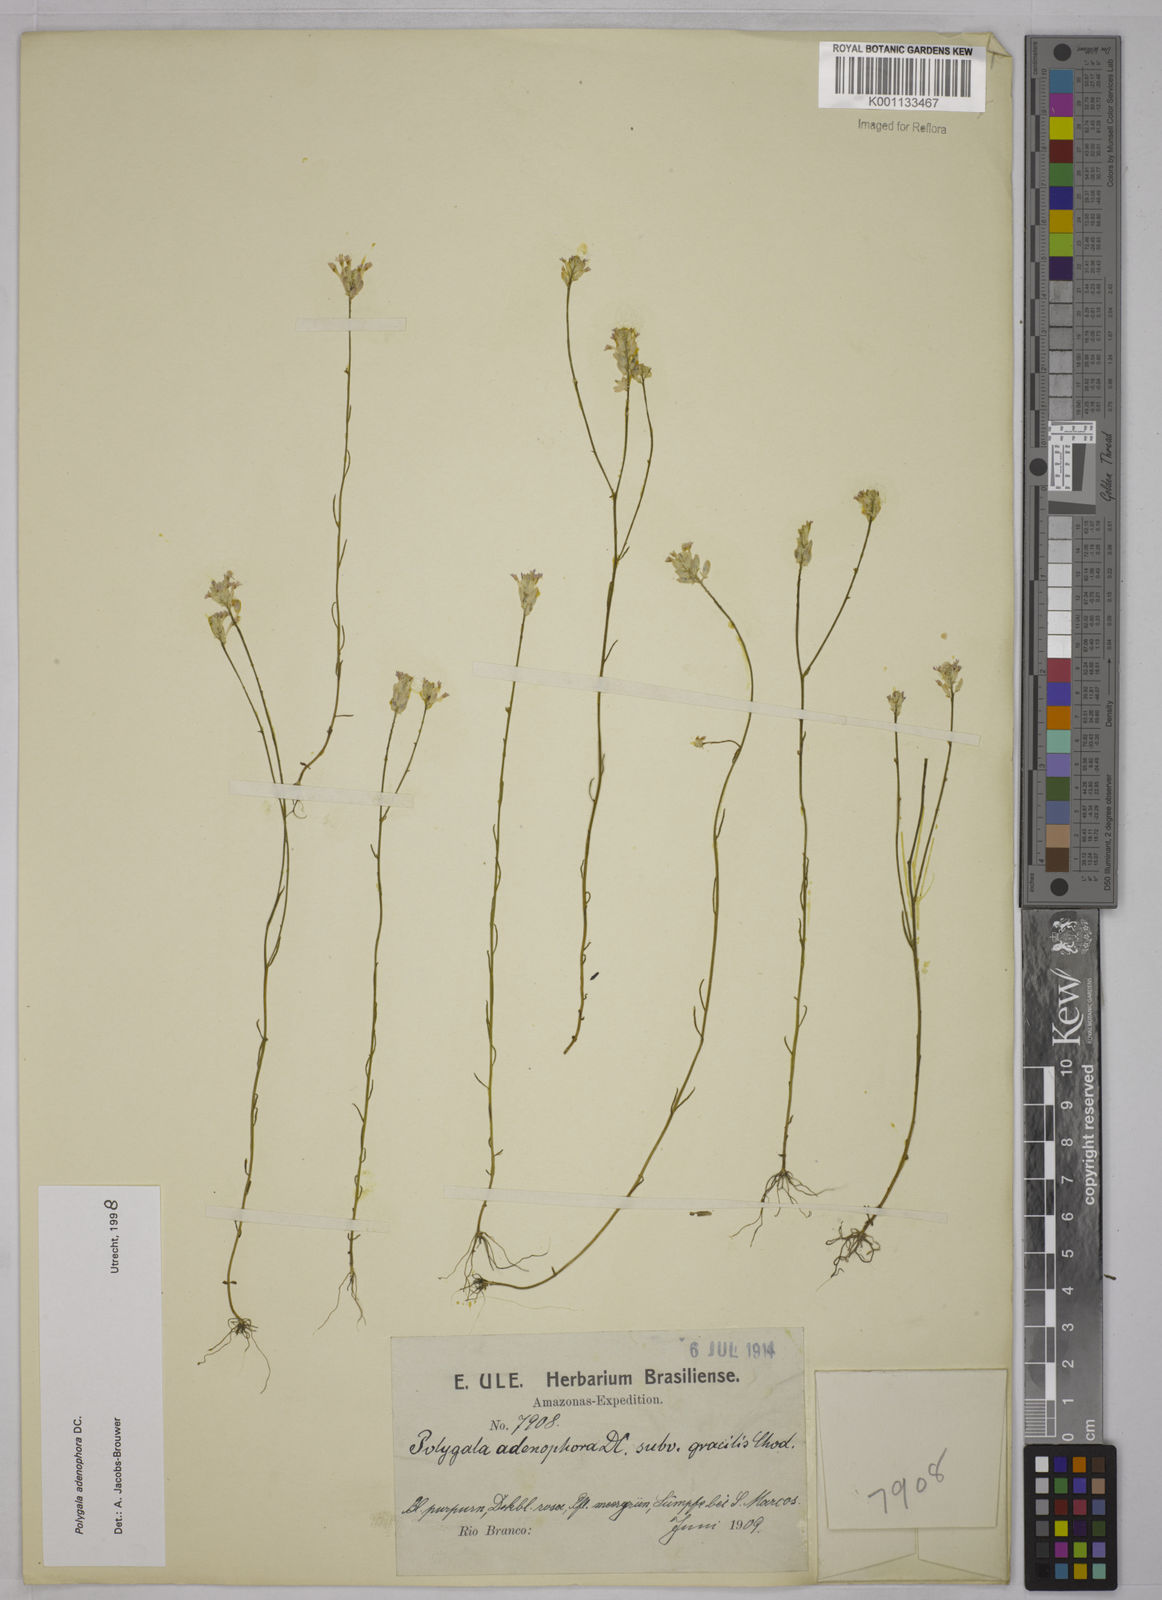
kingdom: Plantae
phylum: Tracheophyta
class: Magnoliopsida
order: Fabales
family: Polygalaceae
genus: Polygala
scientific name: Polygala adenophora
